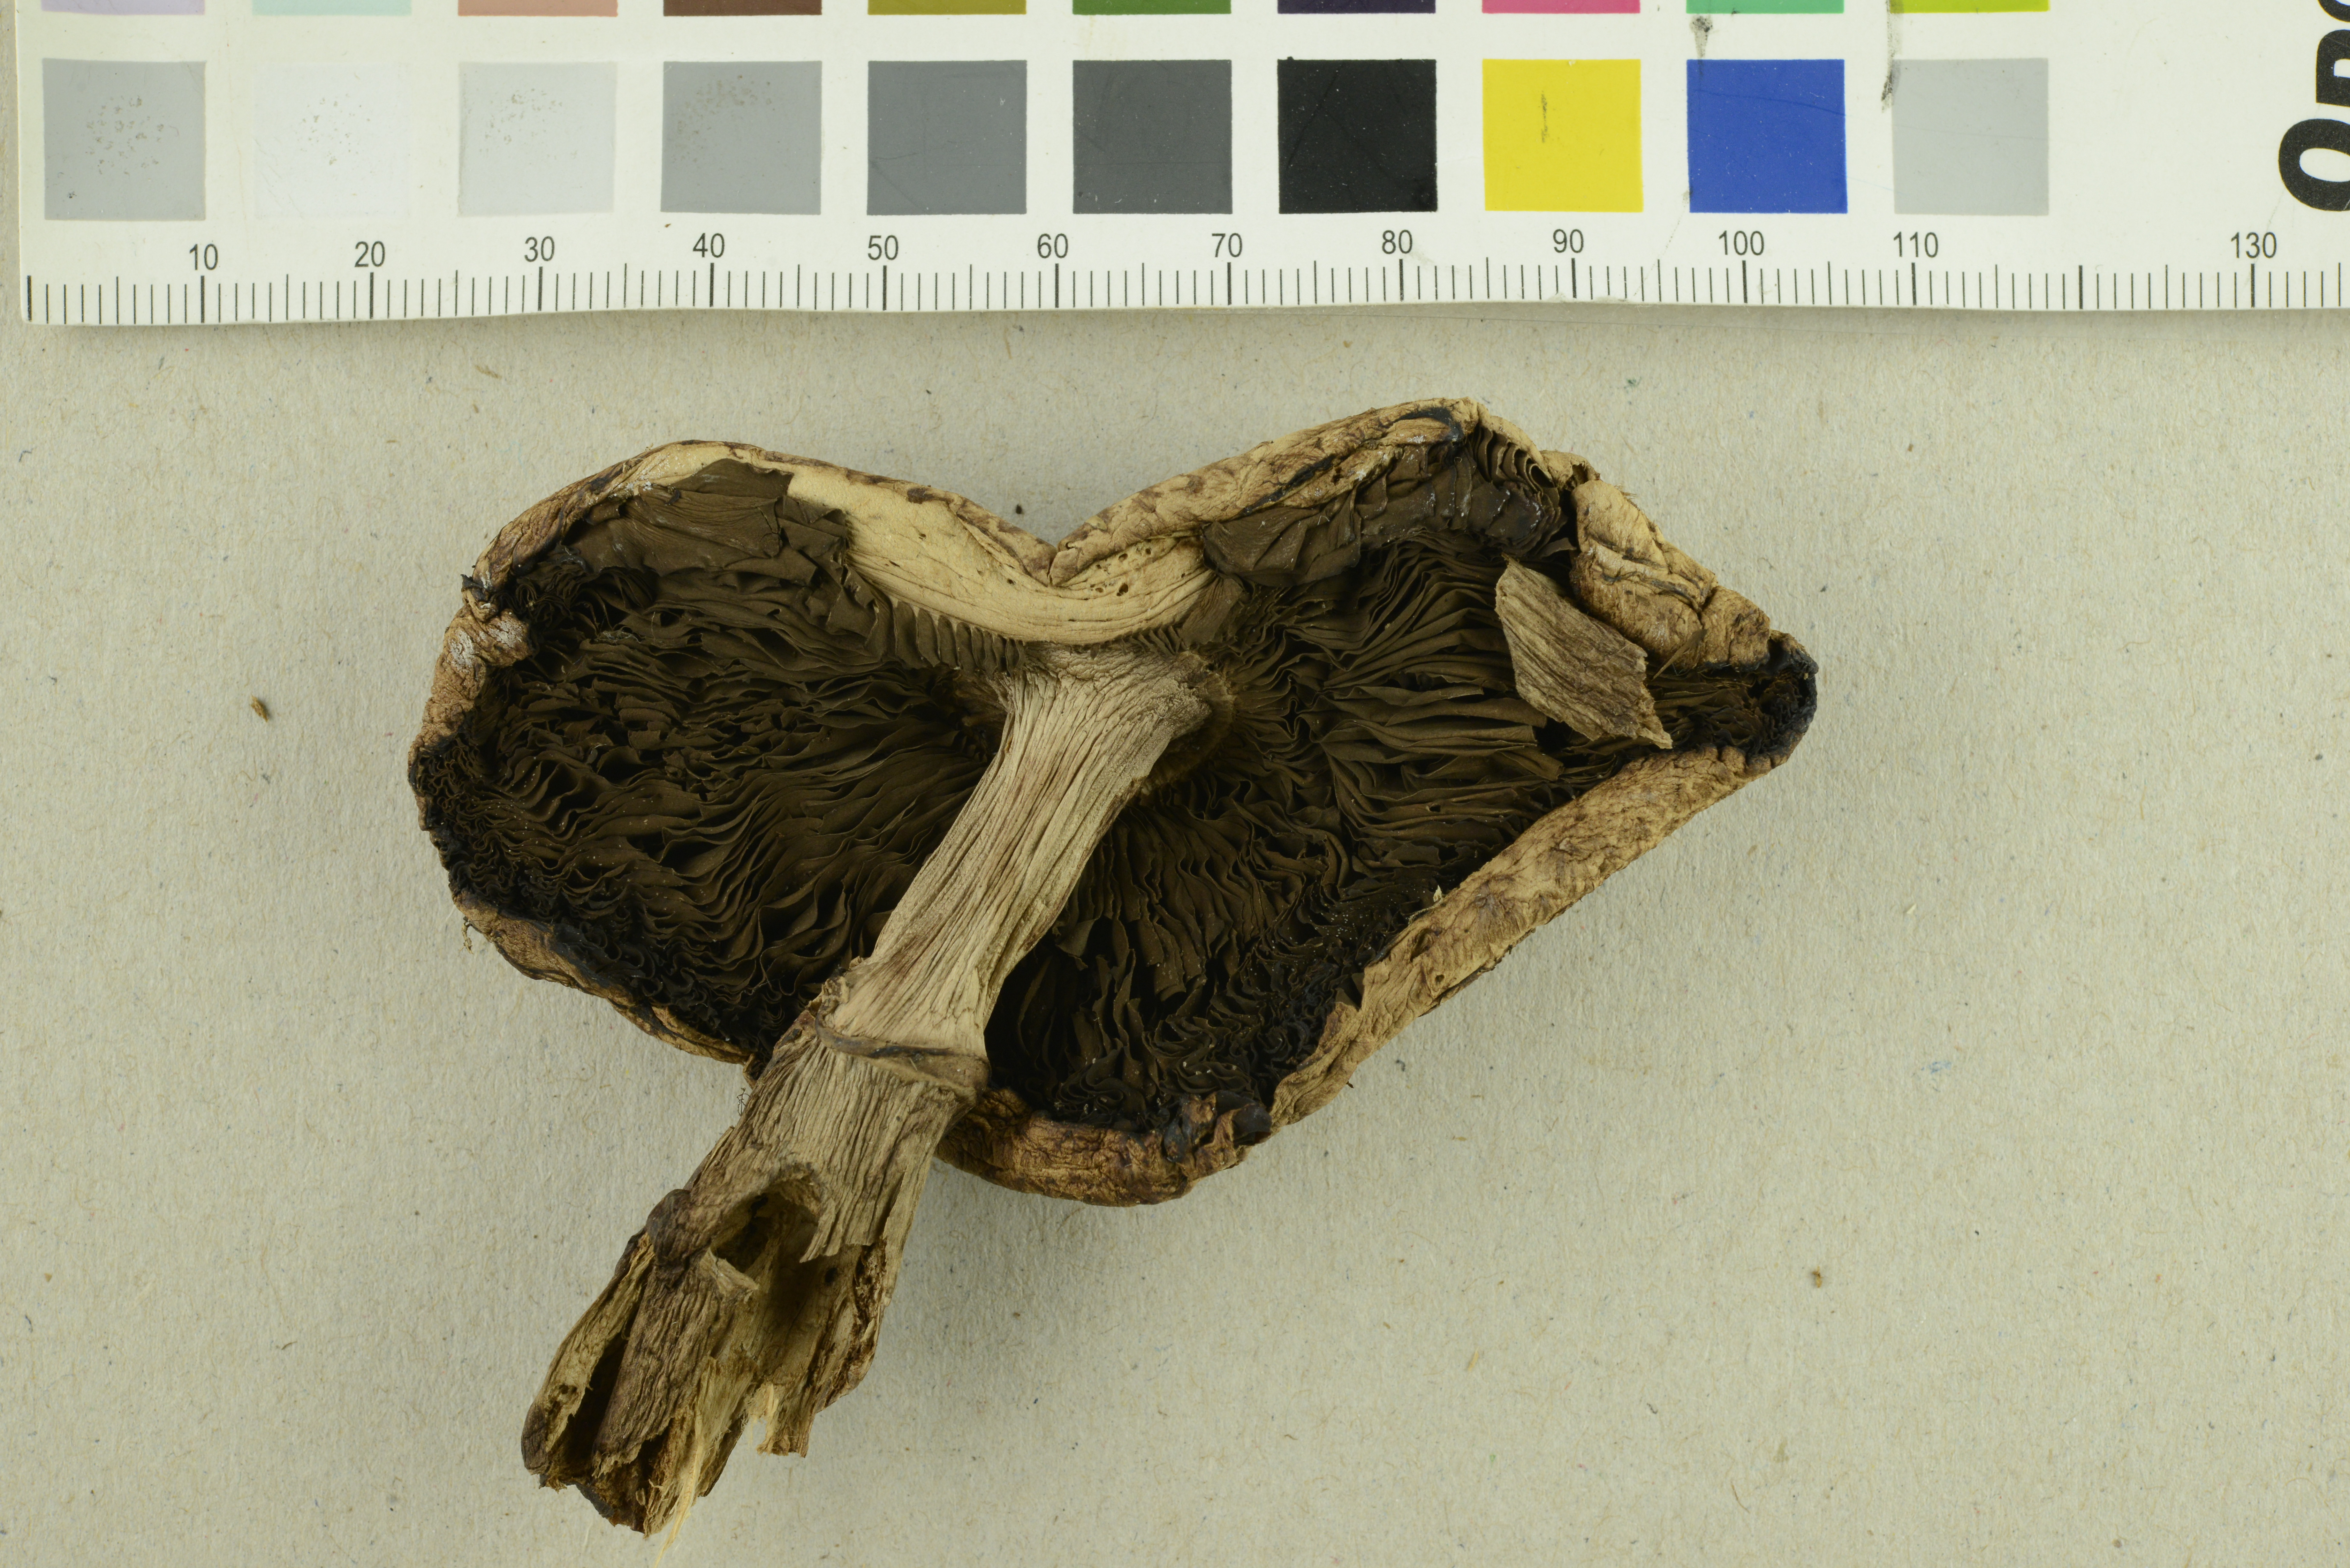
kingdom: Fungi
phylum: Basidiomycota
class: Agaricomycetes
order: Agaricales
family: Agaricaceae
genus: Agaricus
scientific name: Agaricus langei
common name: Scaly wood mushroom
